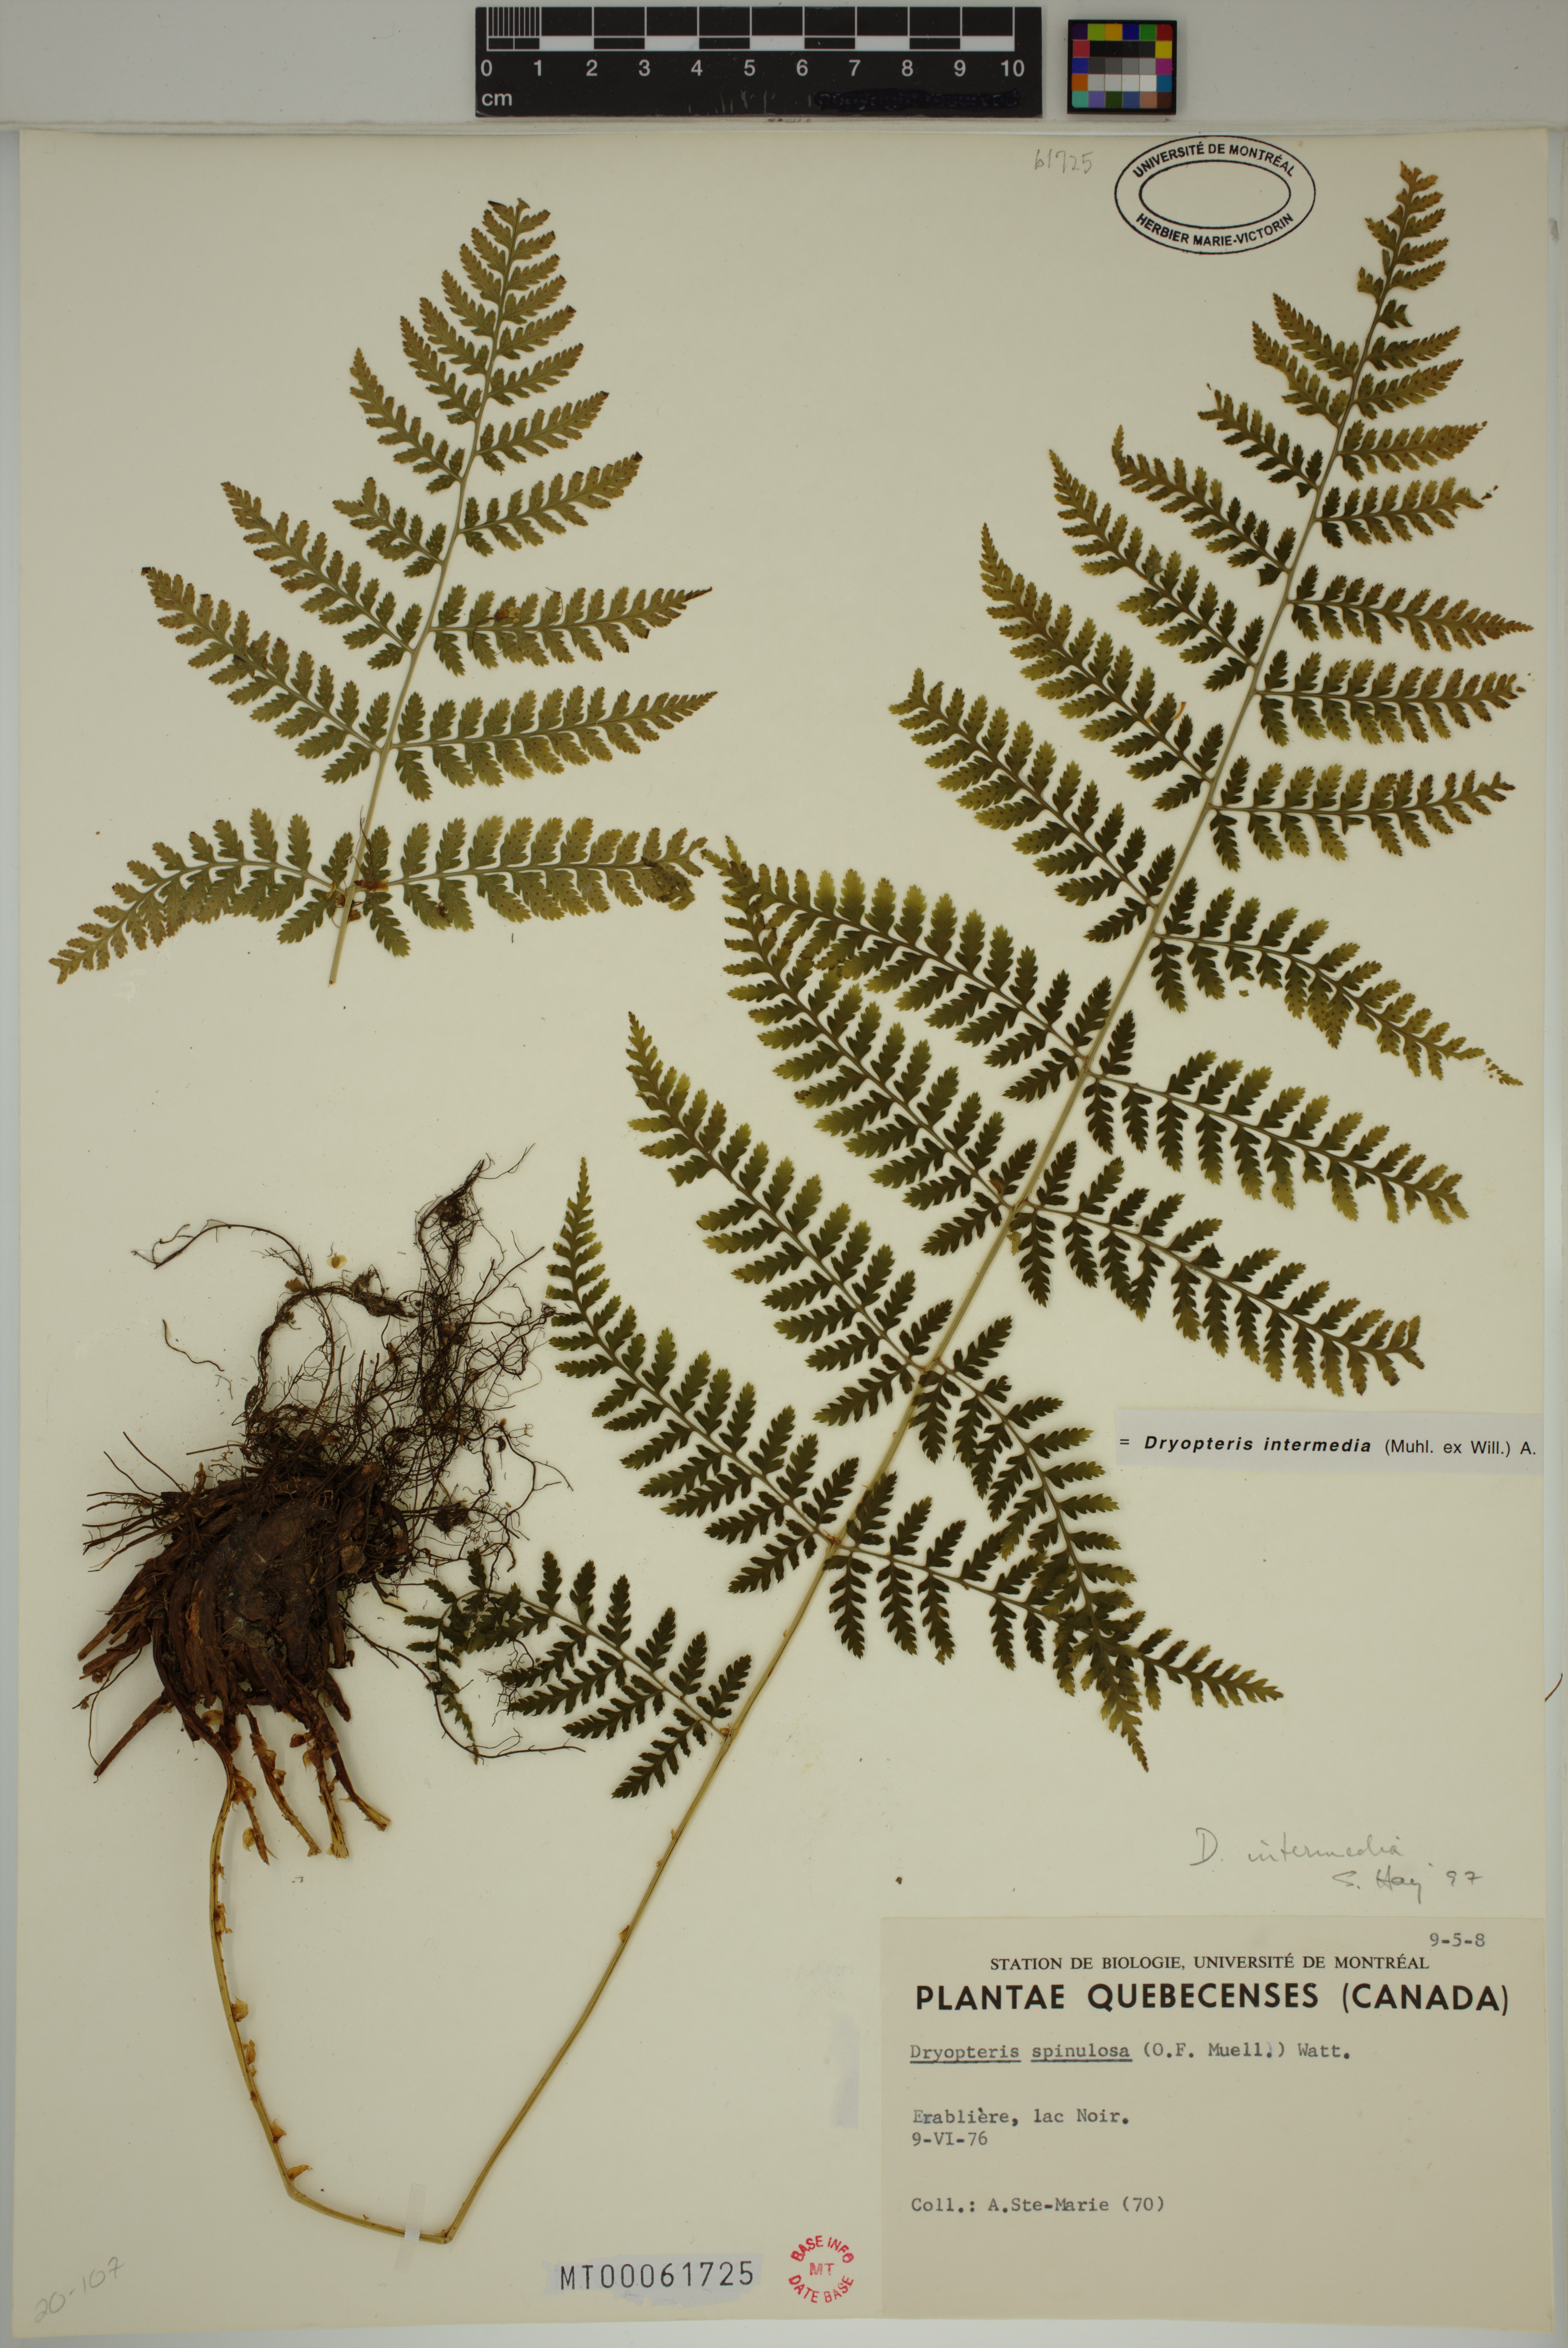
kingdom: Plantae
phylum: Tracheophyta
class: Polypodiopsida
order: Polypodiales
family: Dryopteridaceae
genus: Dryopteris
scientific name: Dryopteris intermedia
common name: Evergreen wood fern
